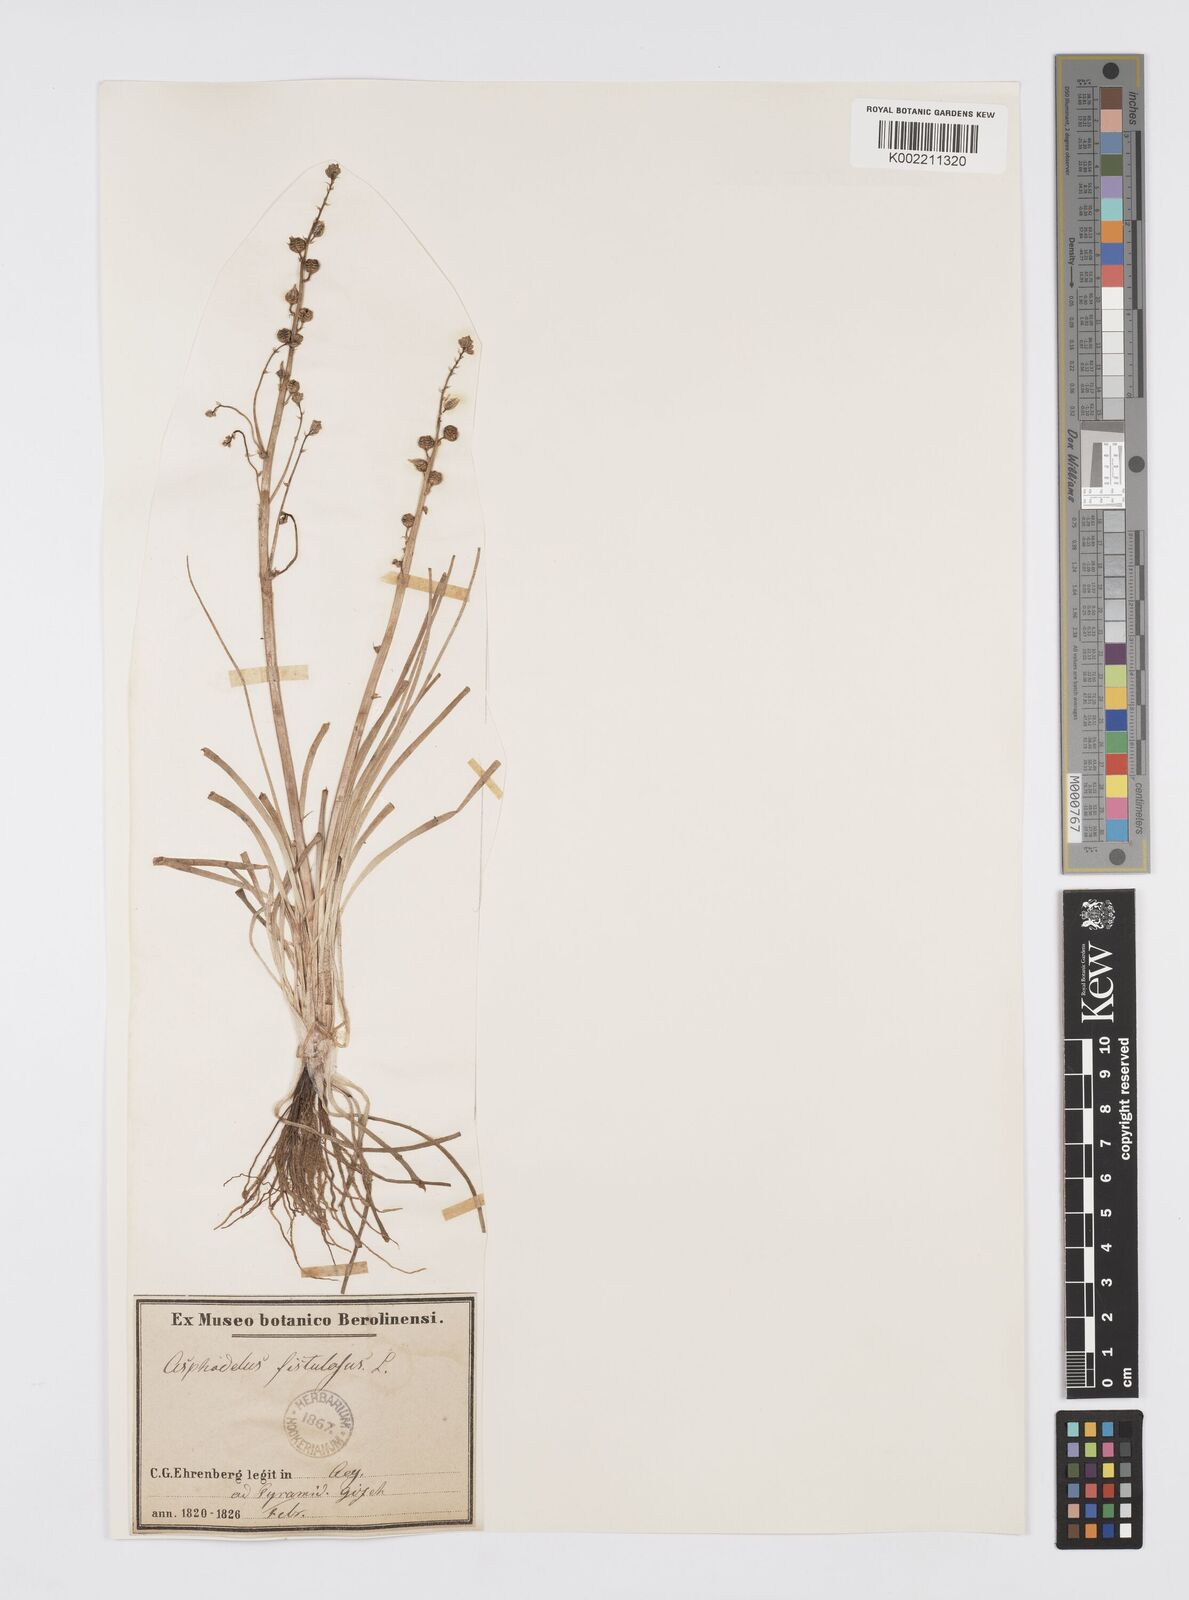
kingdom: Plantae
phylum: Tracheophyta
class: Liliopsida
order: Asparagales
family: Asphodelaceae
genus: Asphodeline
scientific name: Asphodeline tenuior
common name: Thin asphodeline
